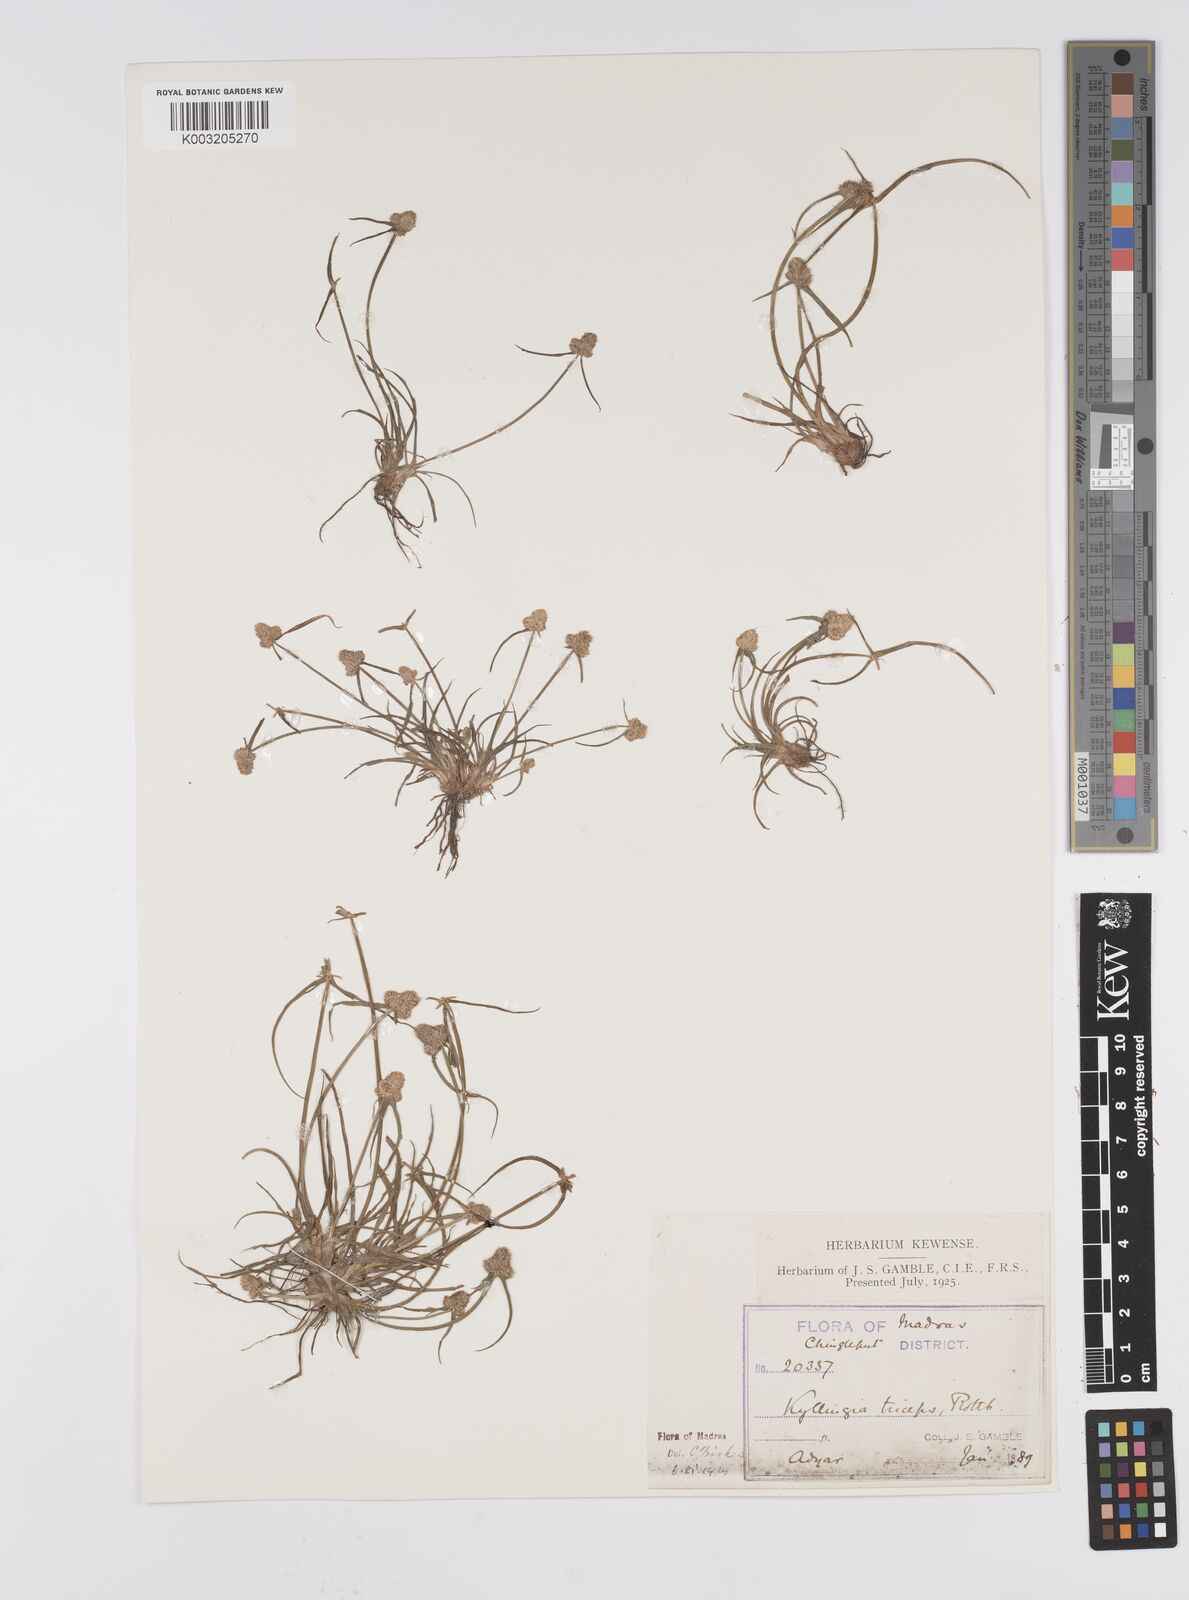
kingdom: Plantae
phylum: Tracheophyta
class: Liliopsida
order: Poales
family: Cyperaceae
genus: Cyperus
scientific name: Cyperus
